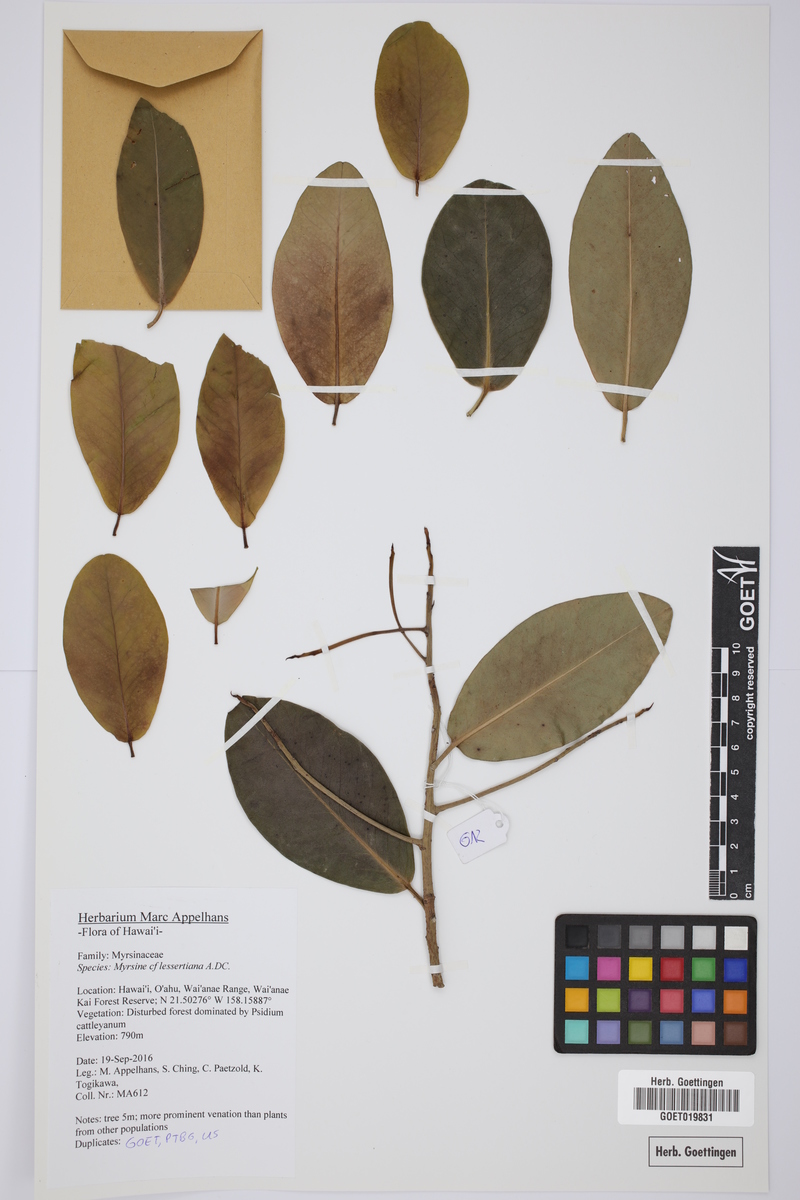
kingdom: Plantae
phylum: Tracheophyta
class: Magnoliopsida
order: Ericales
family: Primulaceae
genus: Myrsine
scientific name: Myrsine lessertiana
